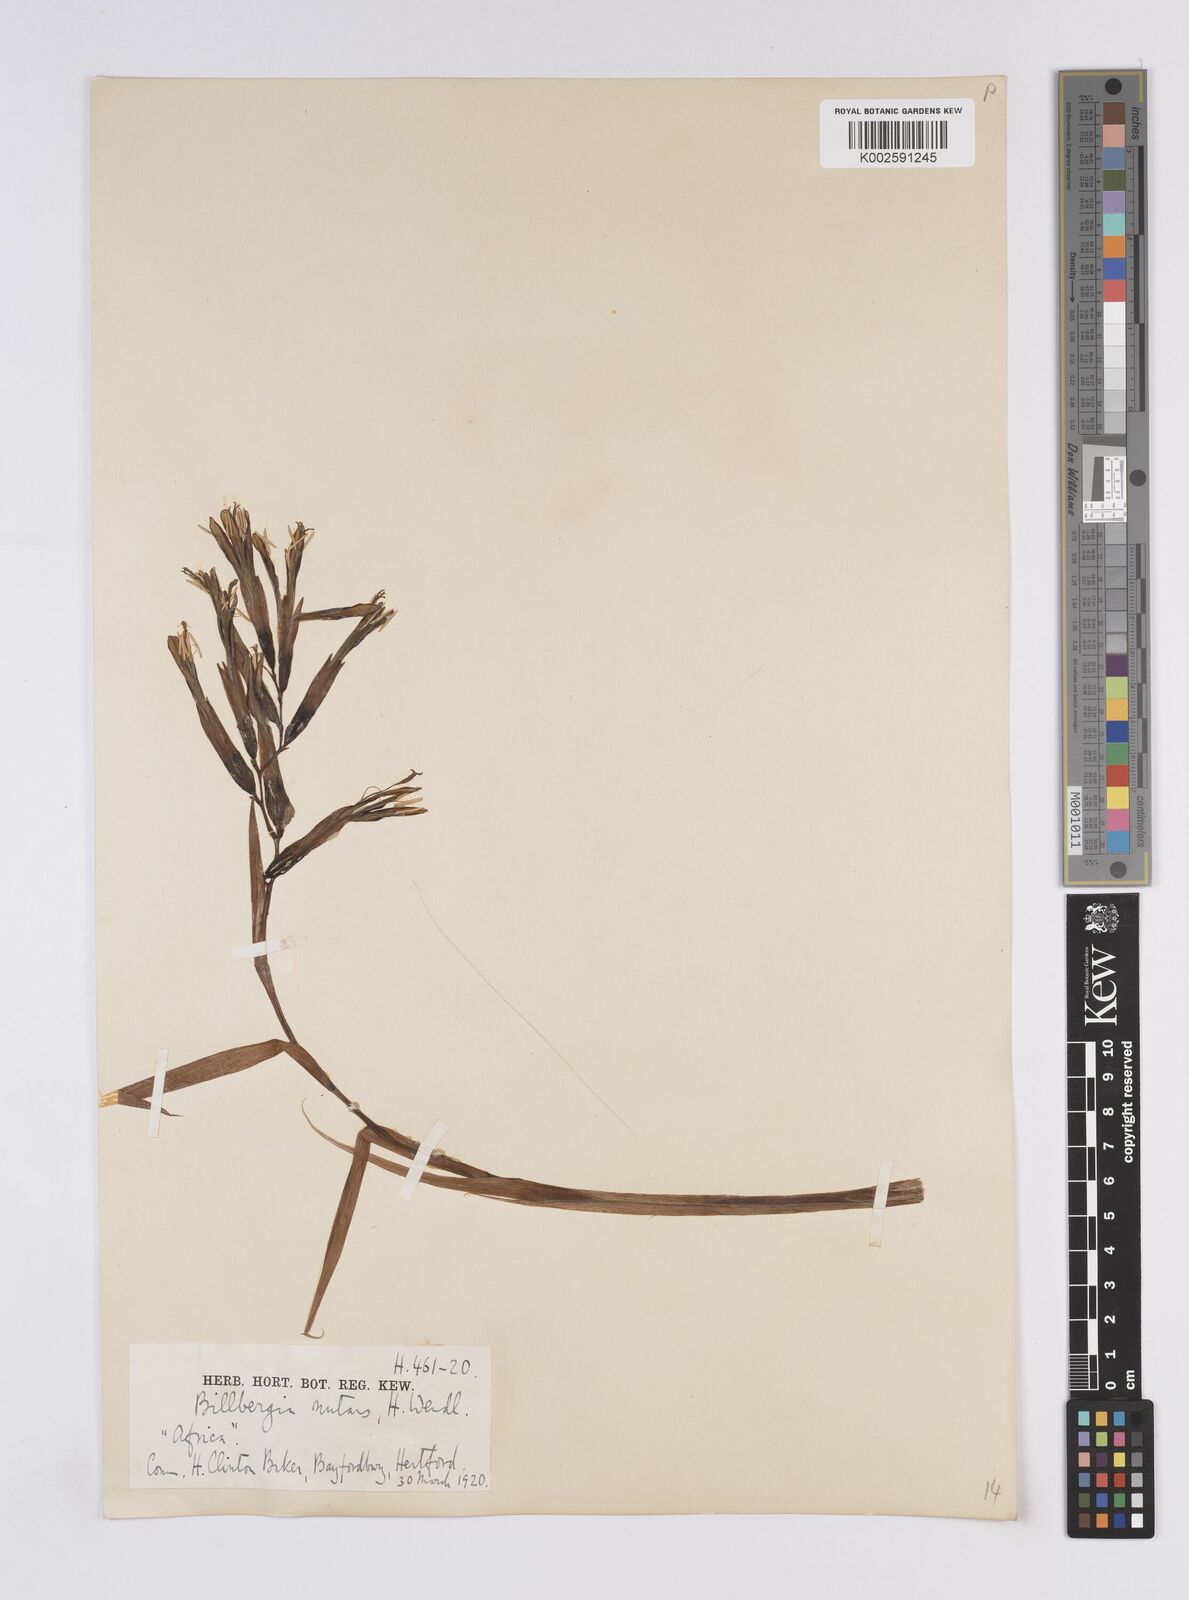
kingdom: Plantae
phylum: Tracheophyta
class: Liliopsida
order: Poales
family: Bromeliaceae
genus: Billbergia
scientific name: Billbergia nutans
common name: Friendship-plant
